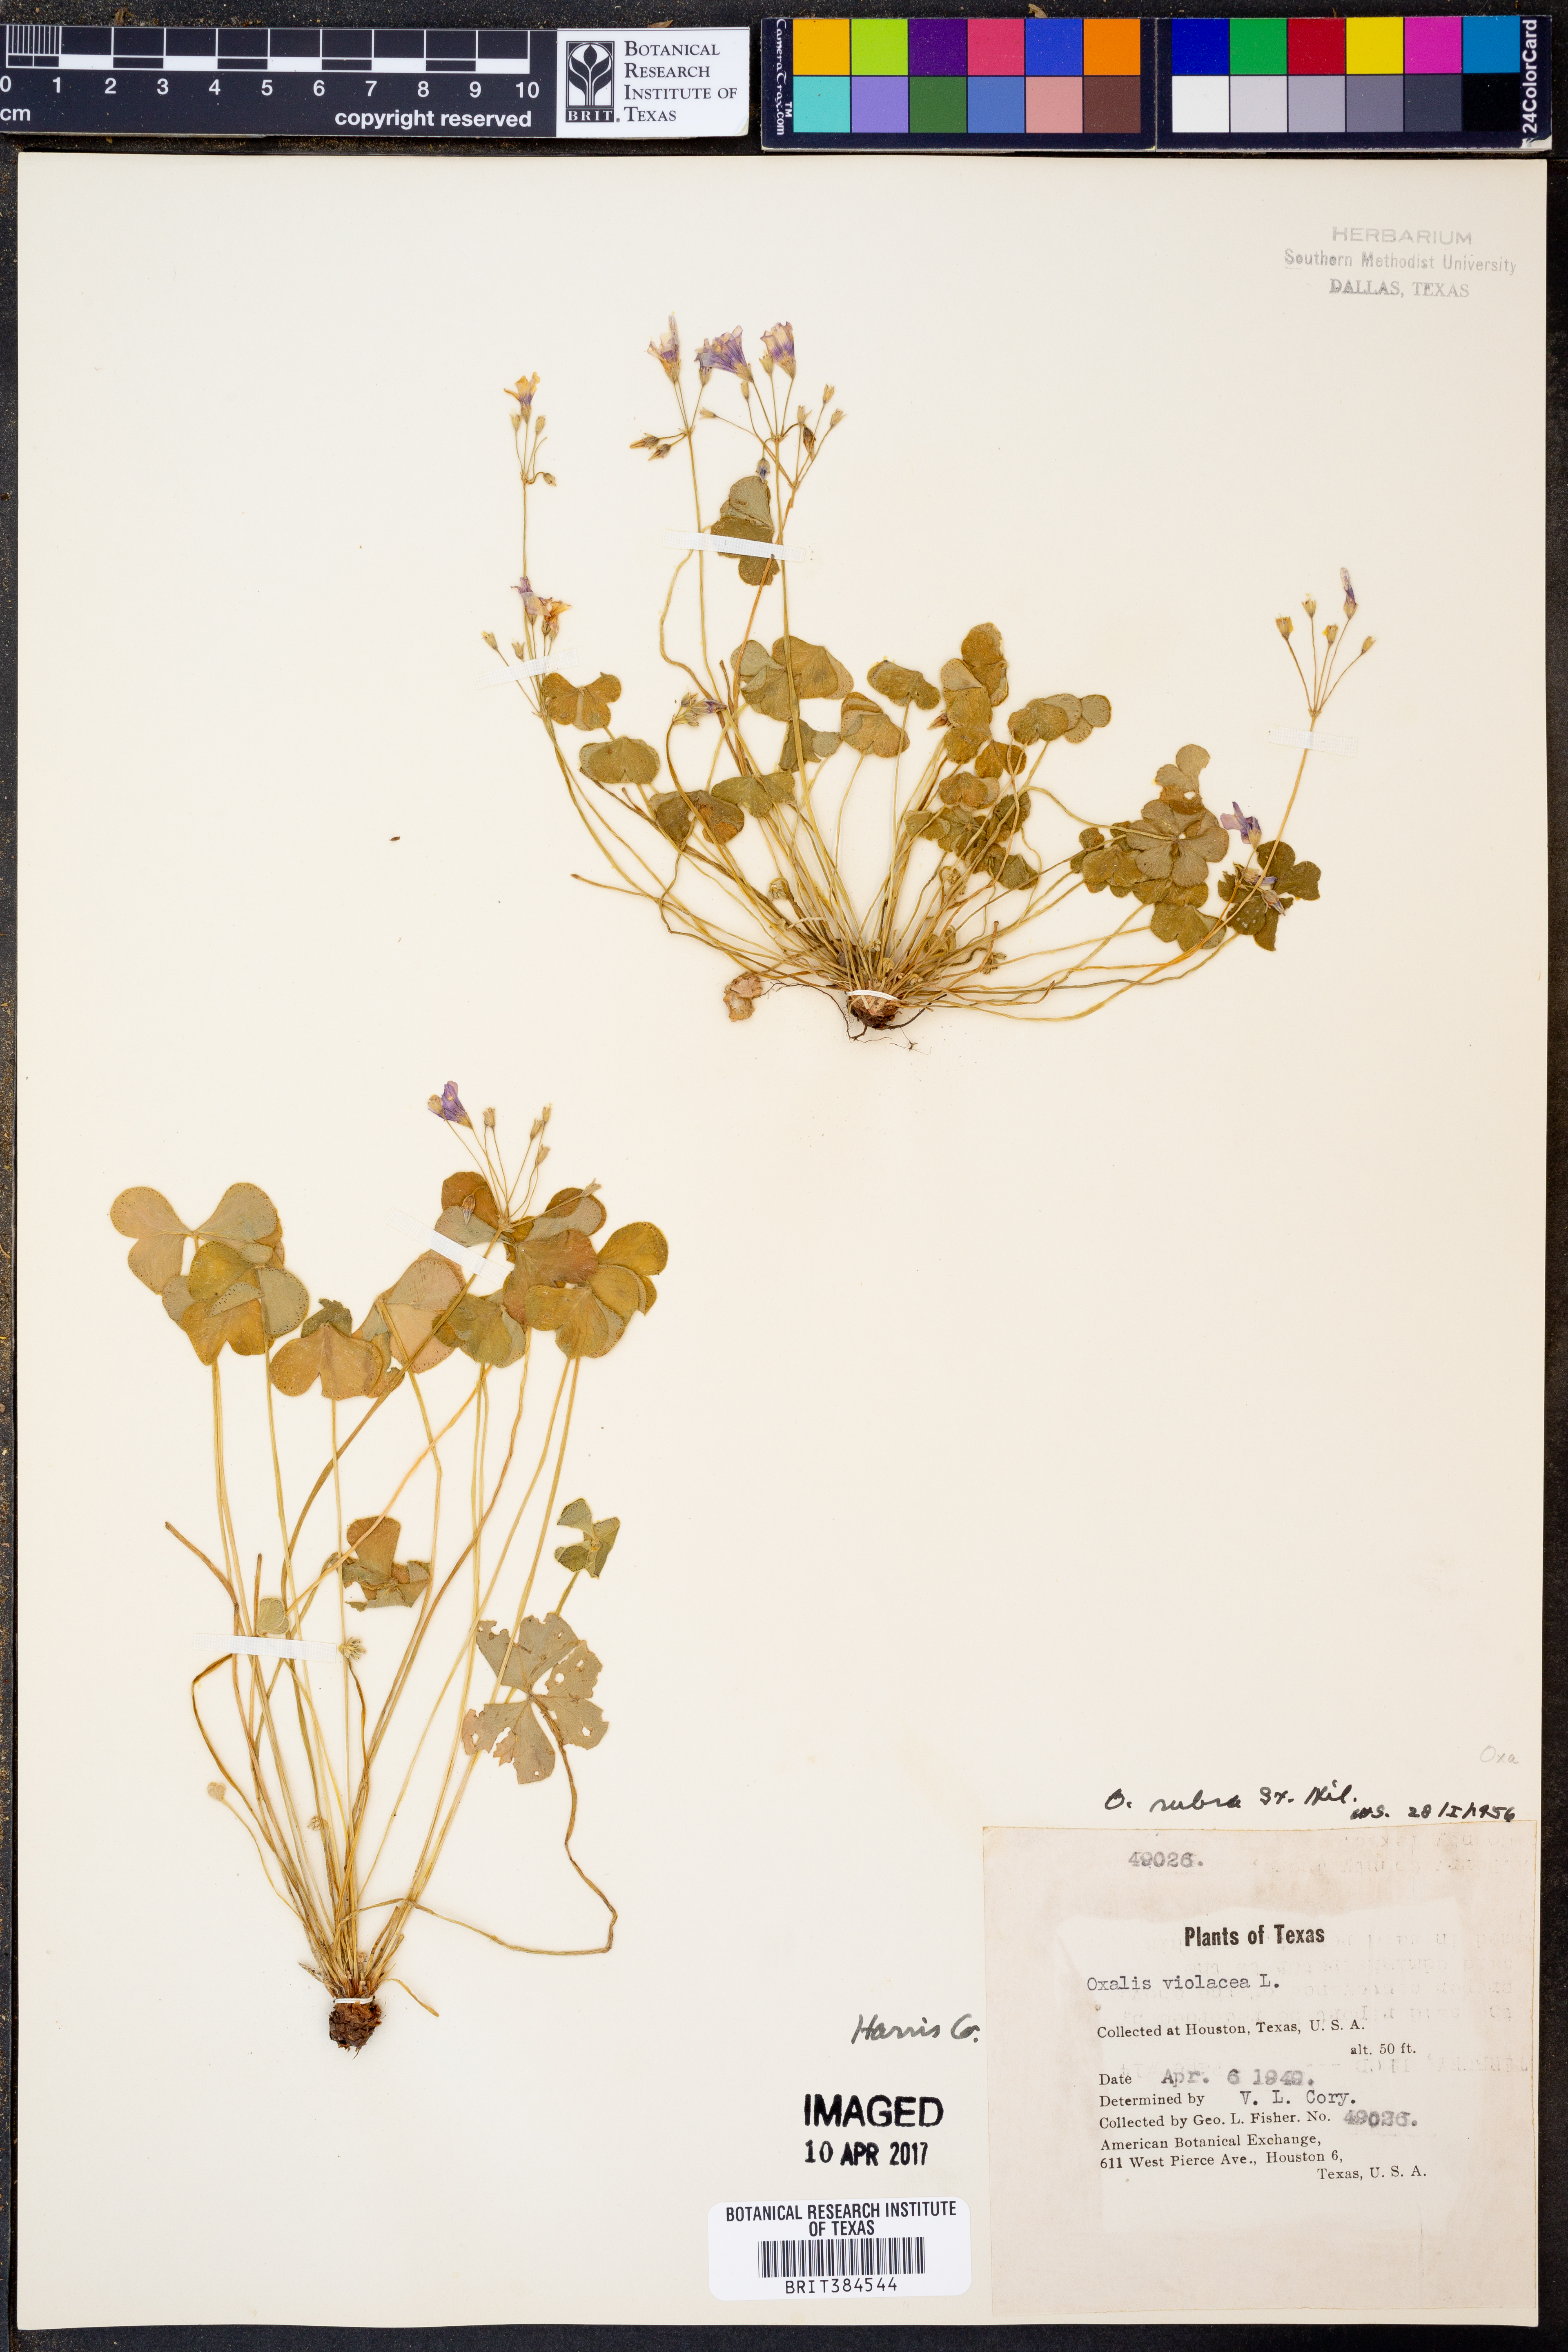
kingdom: Plantae
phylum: Tracheophyta
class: Magnoliopsida
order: Oxalidales
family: Oxalidaceae
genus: Oxalis
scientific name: Oxalis articulata
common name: Pink-sorrel
